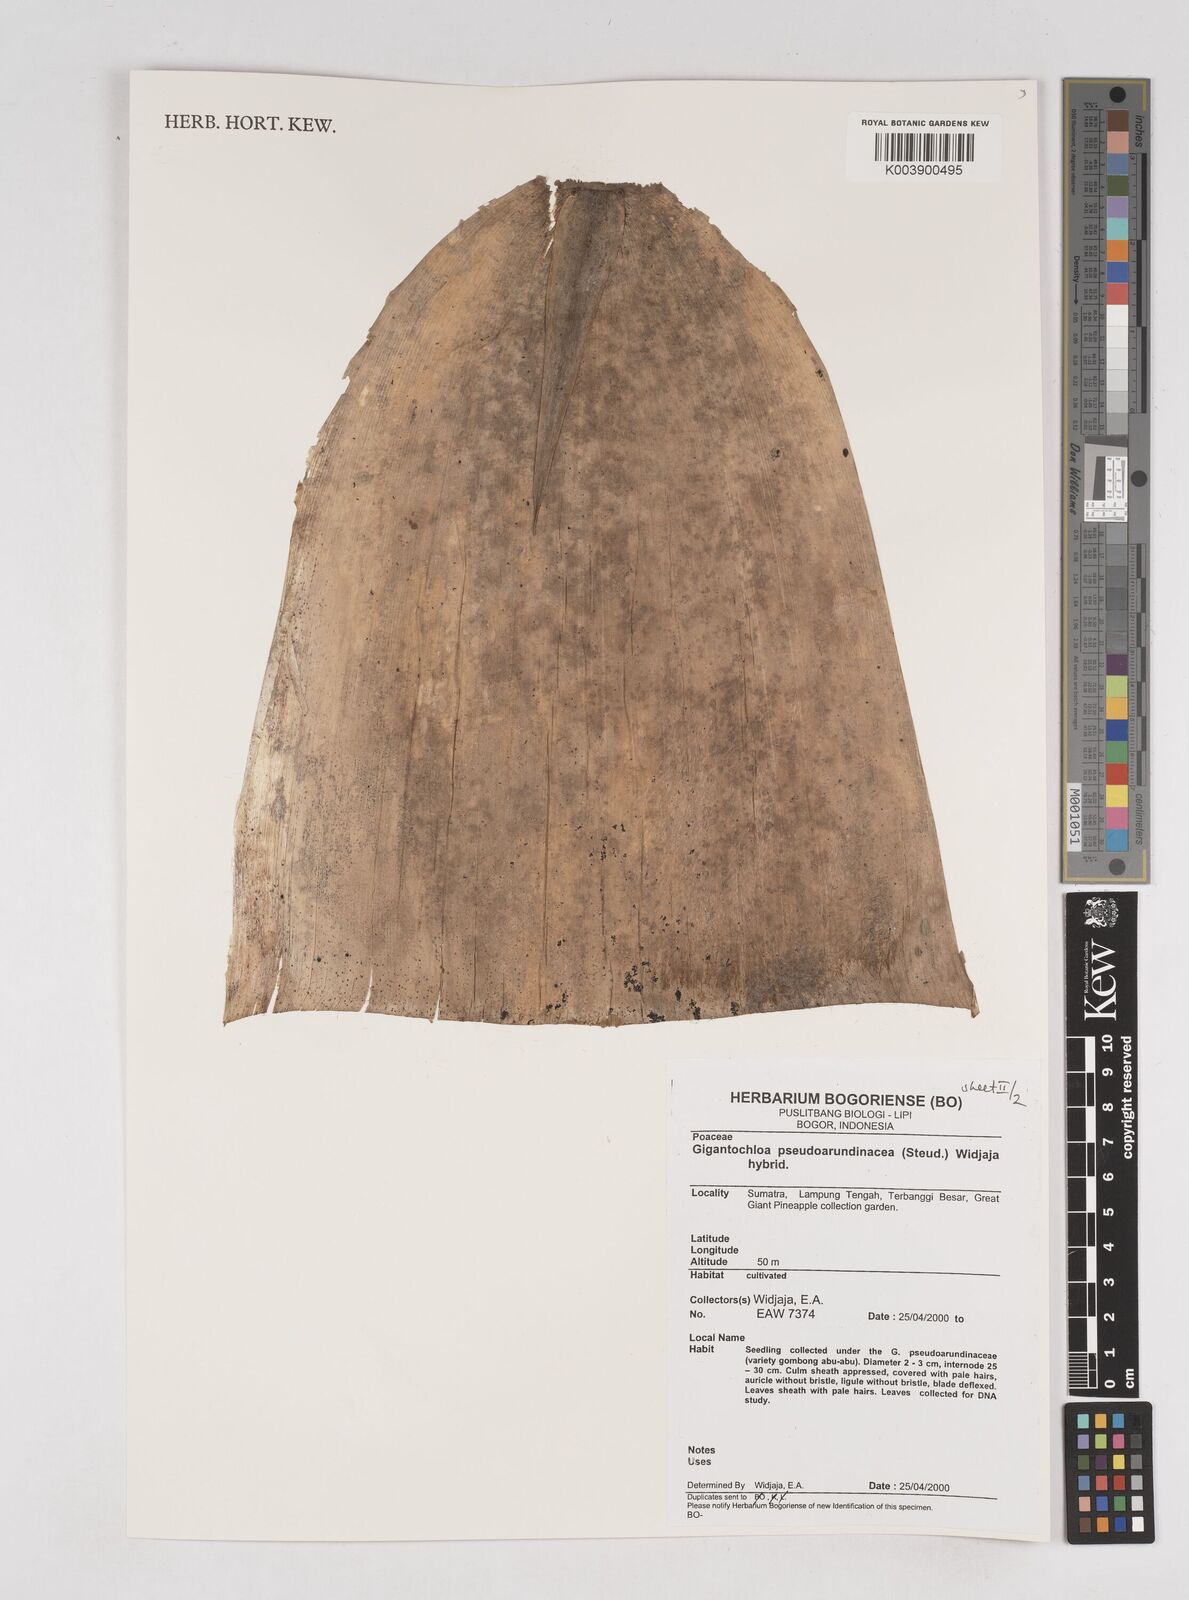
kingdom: Plantae
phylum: Tracheophyta
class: Liliopsida
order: Poales
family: Poaceae
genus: Gigantochloa
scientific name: Gigantochloa verticillata
